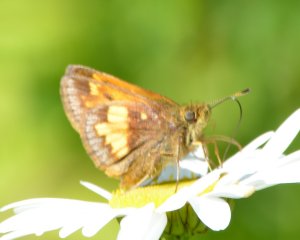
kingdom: Animalia
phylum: Arthropoda
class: Insecta
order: Lepidoptera
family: Hesperiidae
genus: Lon
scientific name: Lon hobomok
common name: Hobomok Skipper
